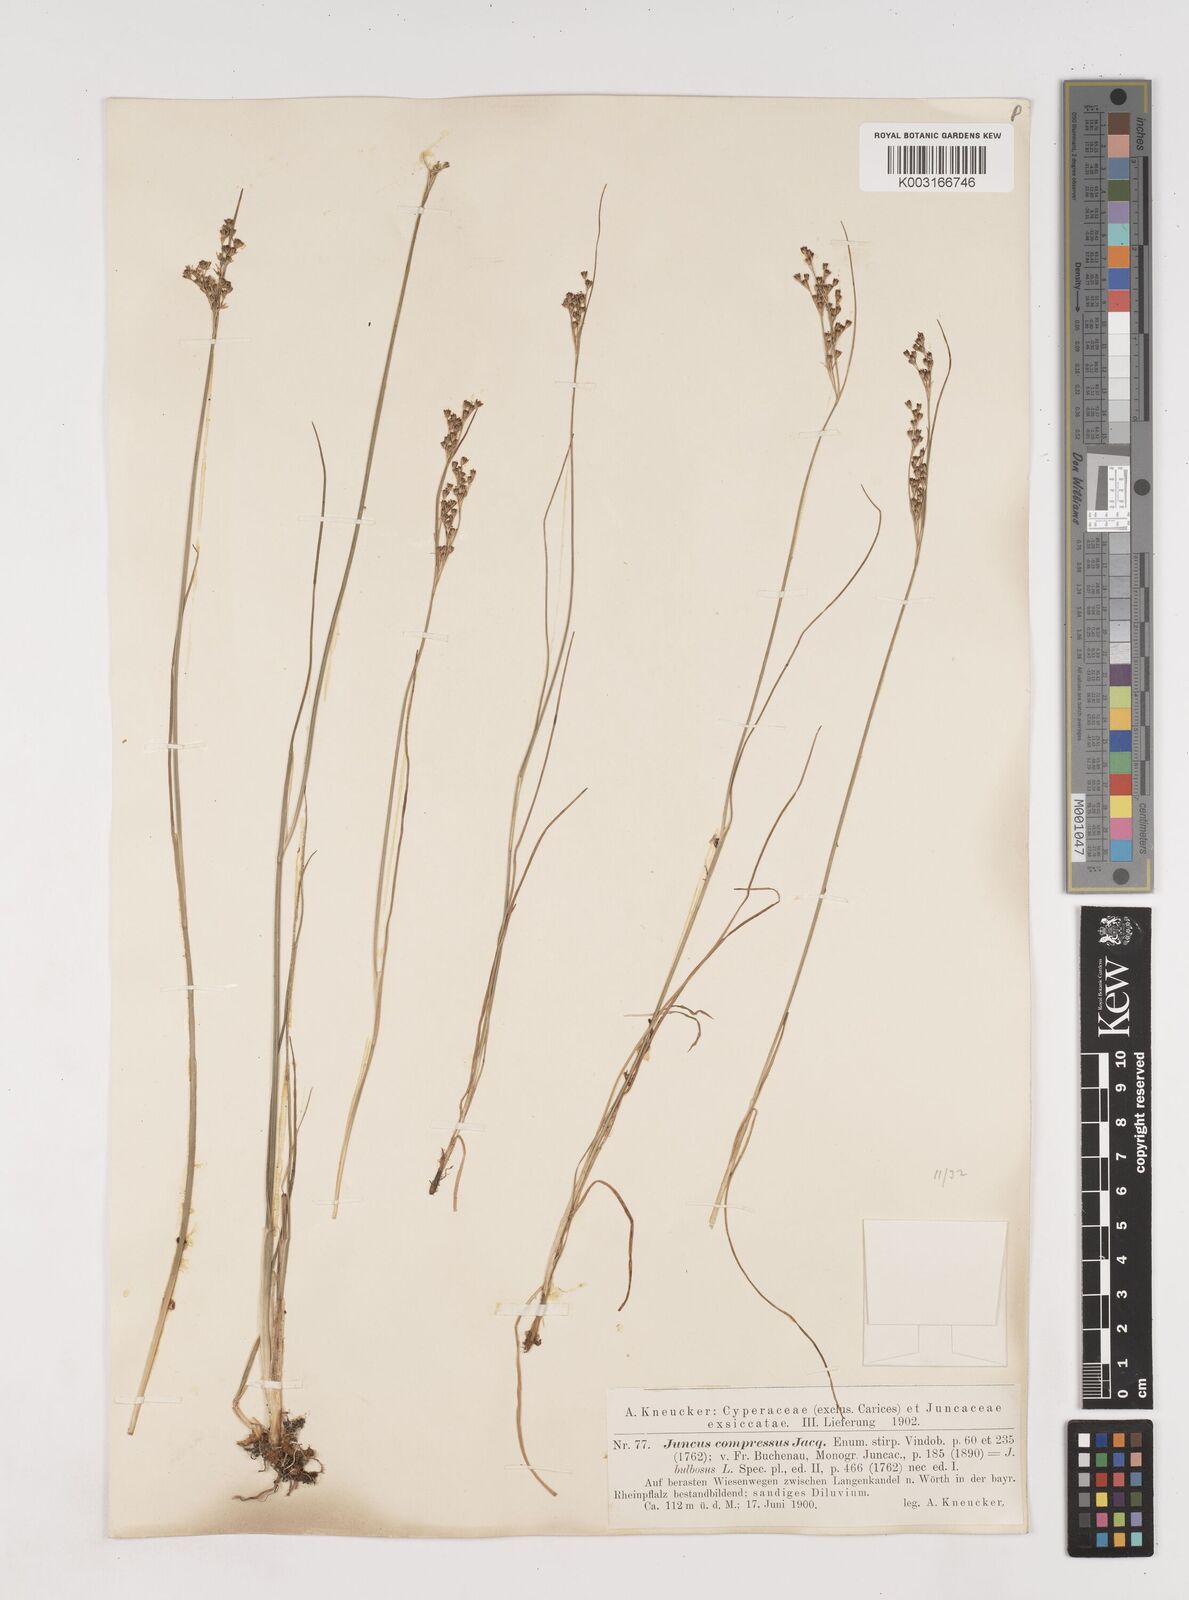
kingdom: Plantae
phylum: Tracheophyta
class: Liliopsida
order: Poales
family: Juncaceae
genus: Juncus
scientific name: Juncus
